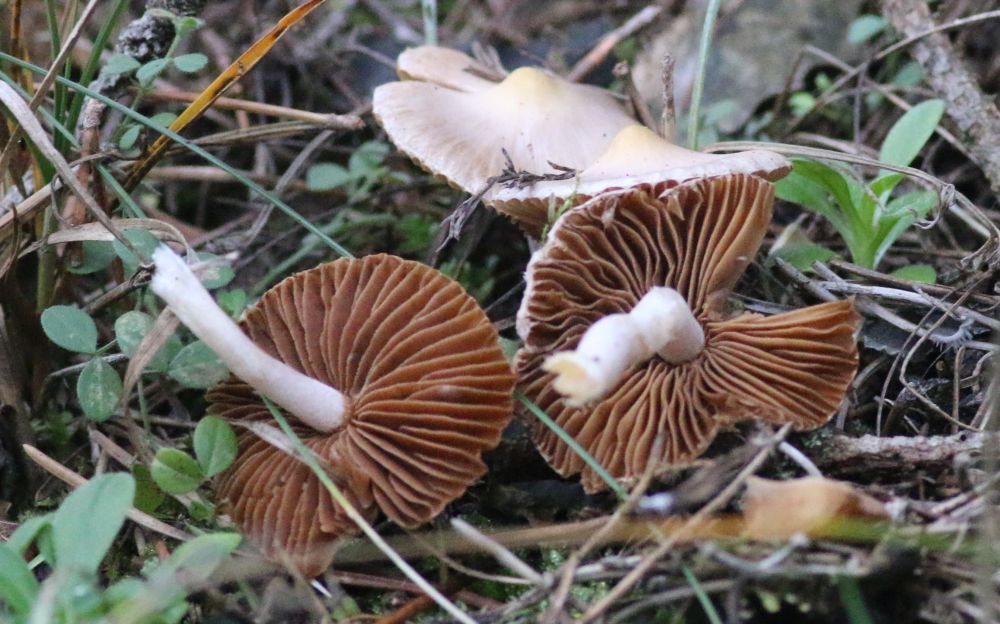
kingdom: Fungi
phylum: Basidiomycota
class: Agaricomycetes
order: Agaricales
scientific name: Agaricales
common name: champignonordenen
